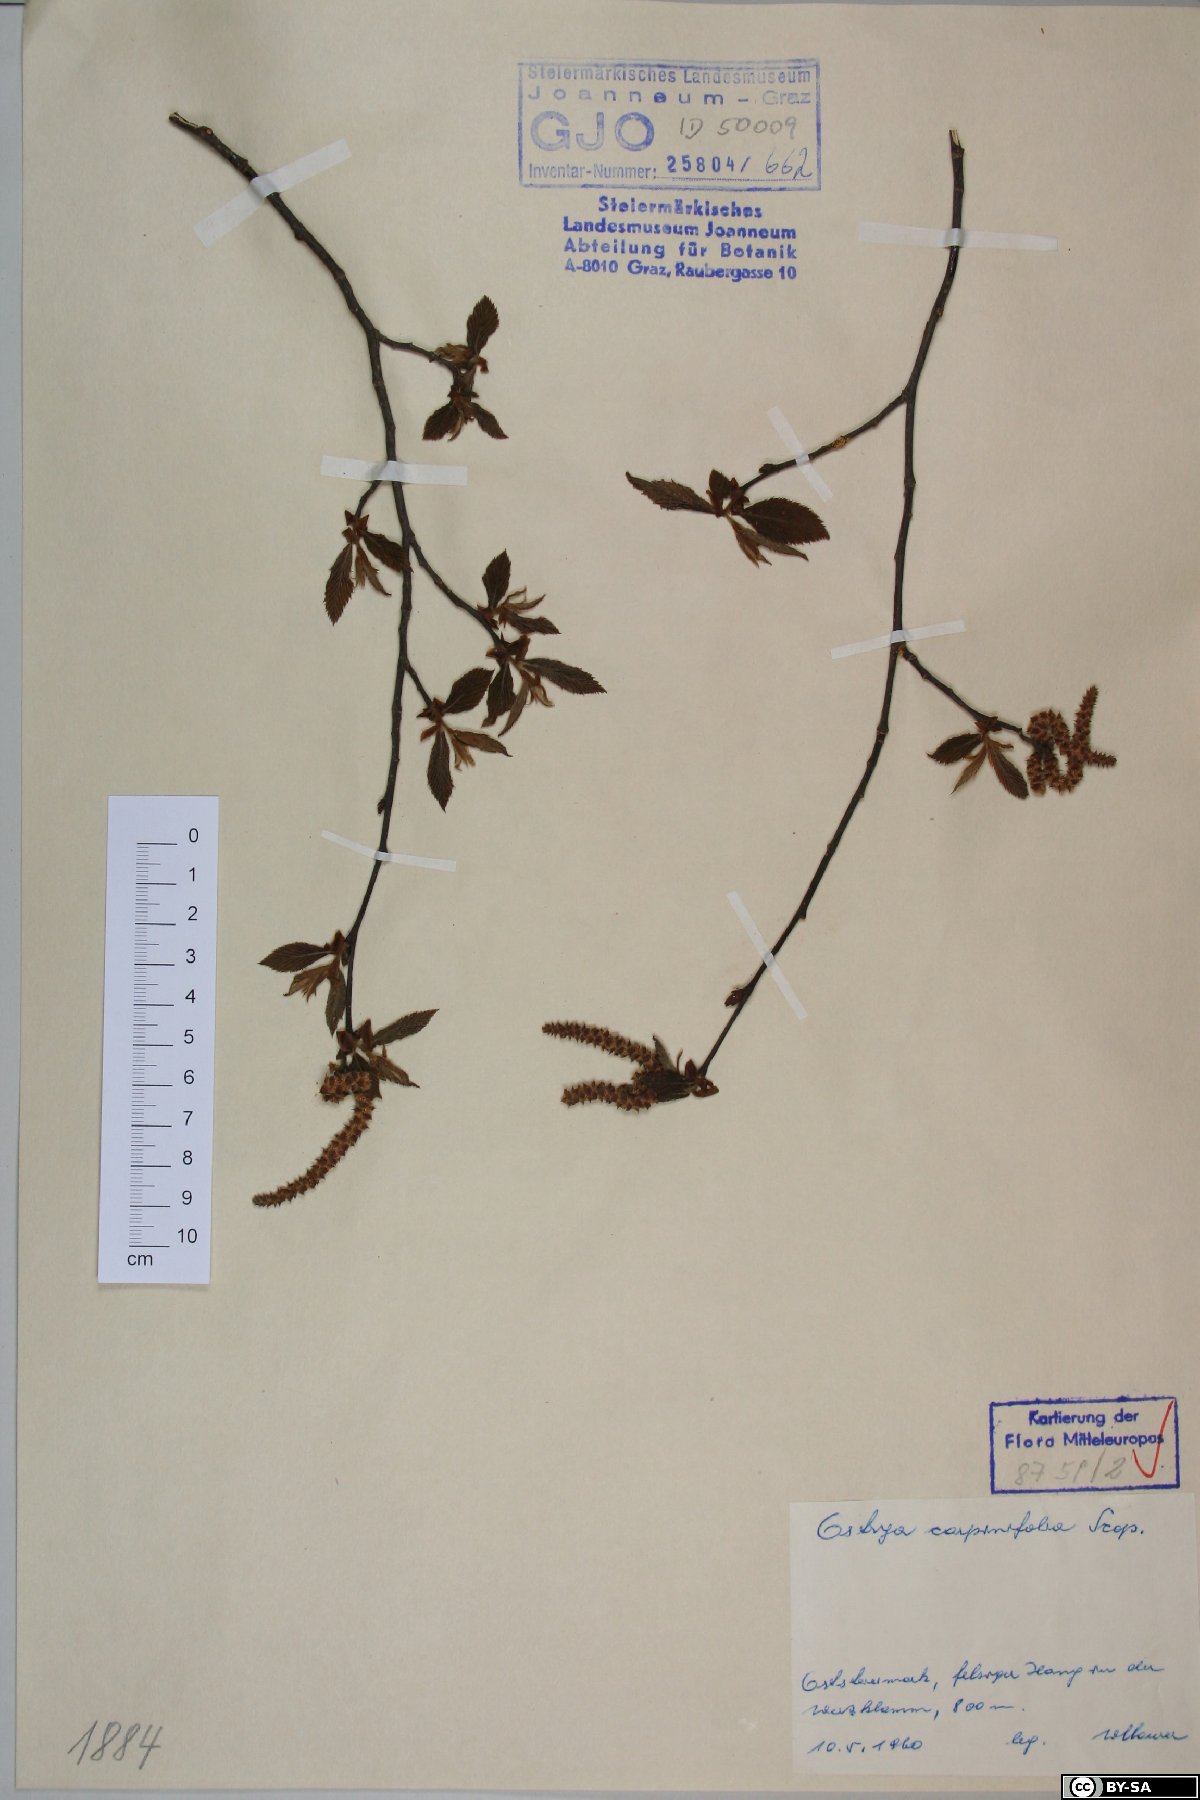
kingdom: Plantae
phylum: Tracheophyta
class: Magnoliopsida
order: Fagales
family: Betulaceae
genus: Ostrya
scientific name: Ostrya carpinifolia
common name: European hop-hornbeam
